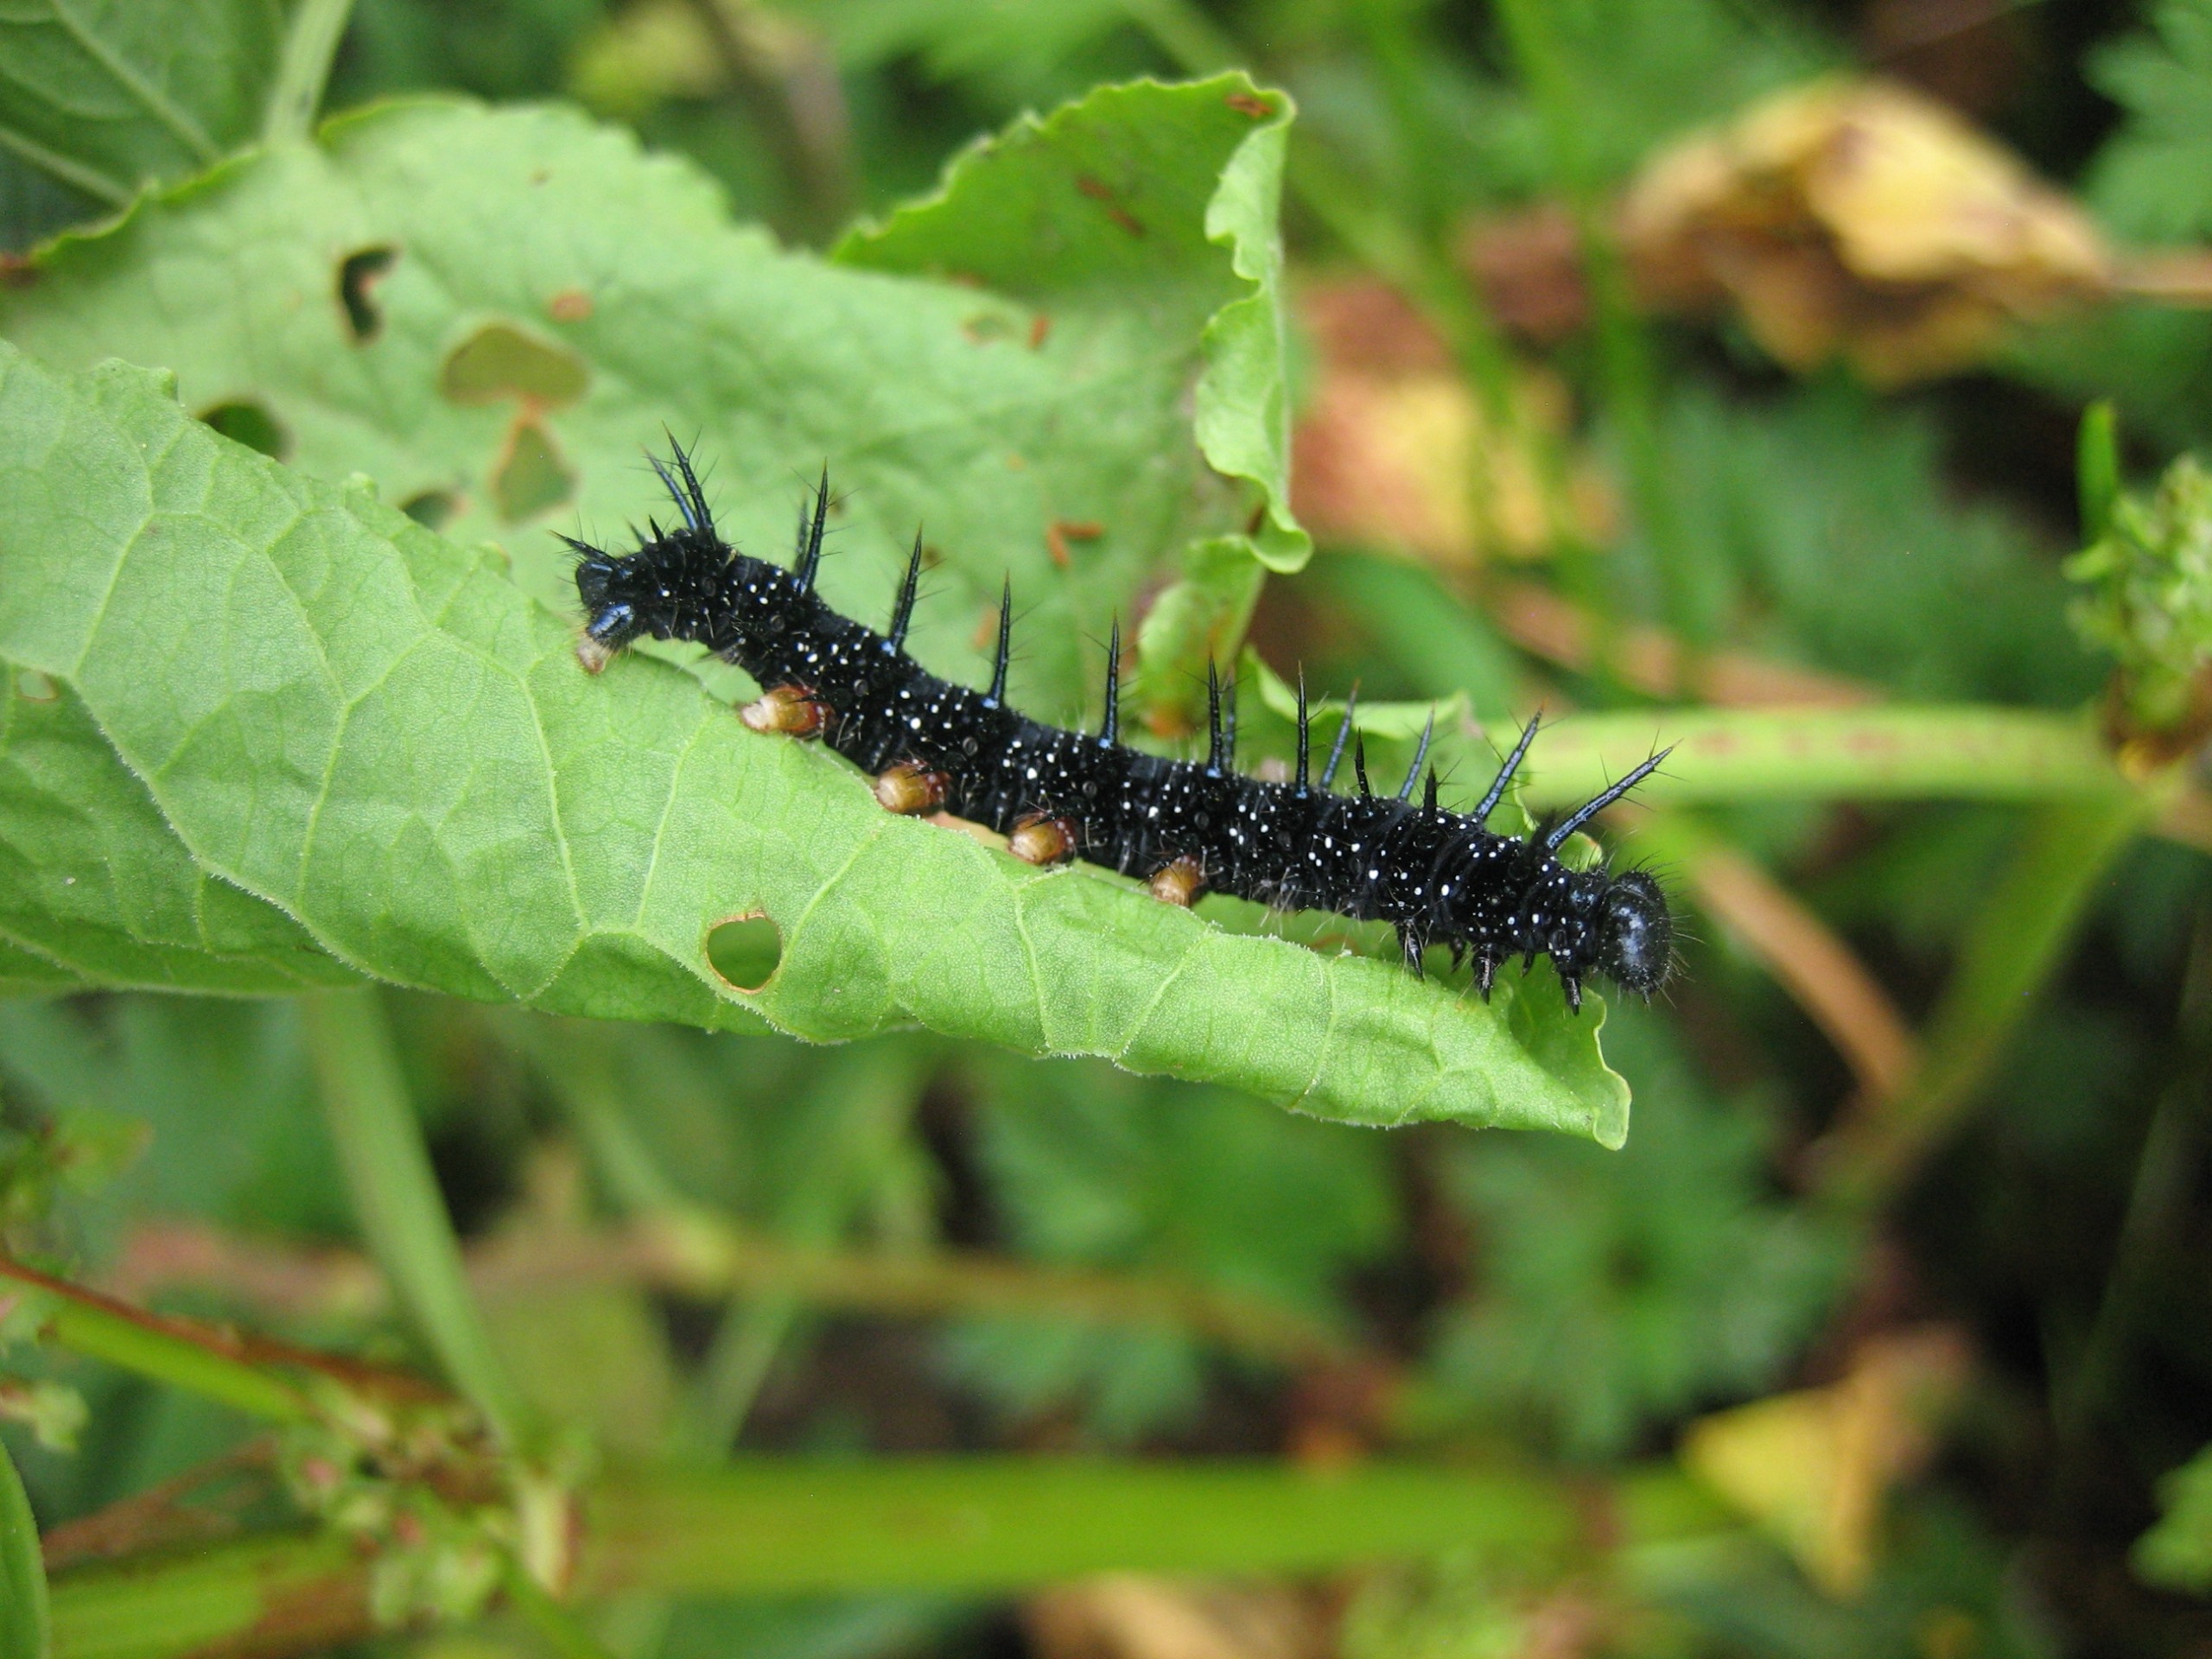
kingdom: Animalia
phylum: Arthropoda
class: Insecta
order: Lepidoptera
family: Nymphalidae
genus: Aglais
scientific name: Aglais io
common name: Dagpåfugleøje
